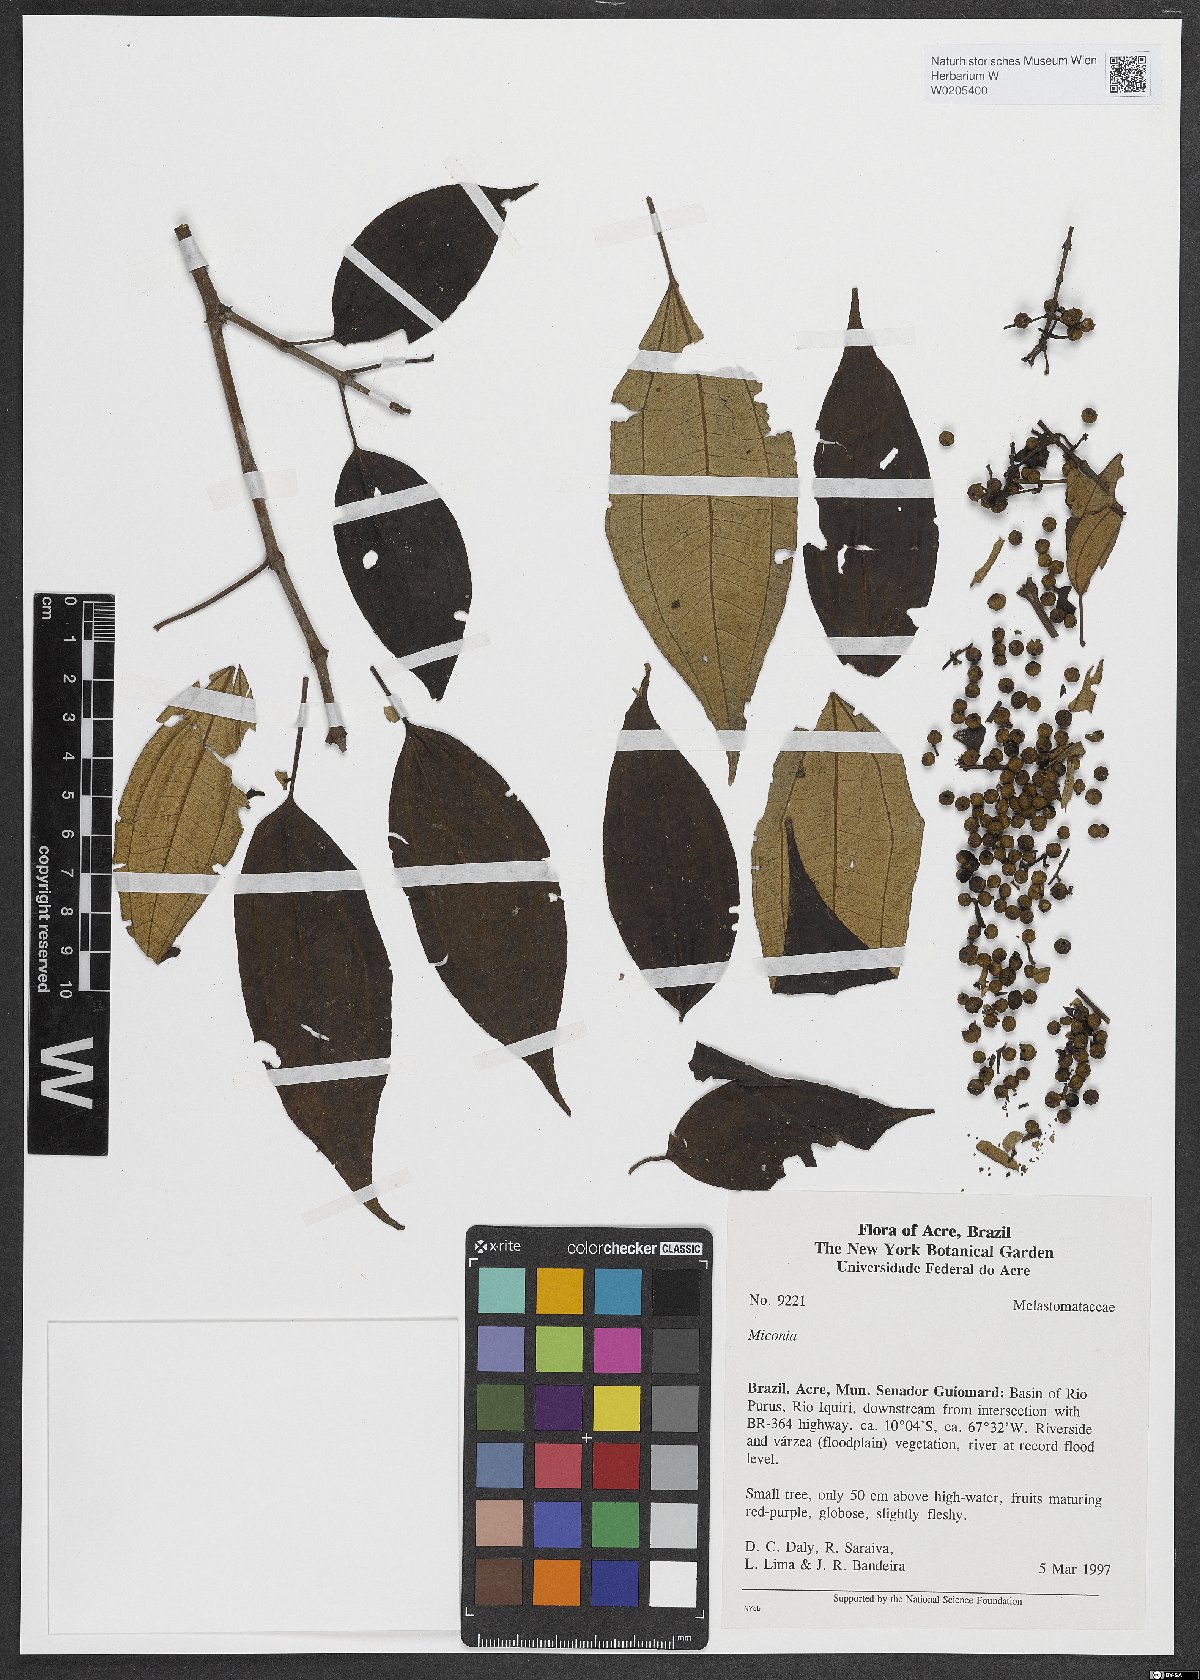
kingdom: Plantae
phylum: Tracheophyta
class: Magnoliopsida
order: Myrtales
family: Melastomataceae
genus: Miconia
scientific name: Miconia
